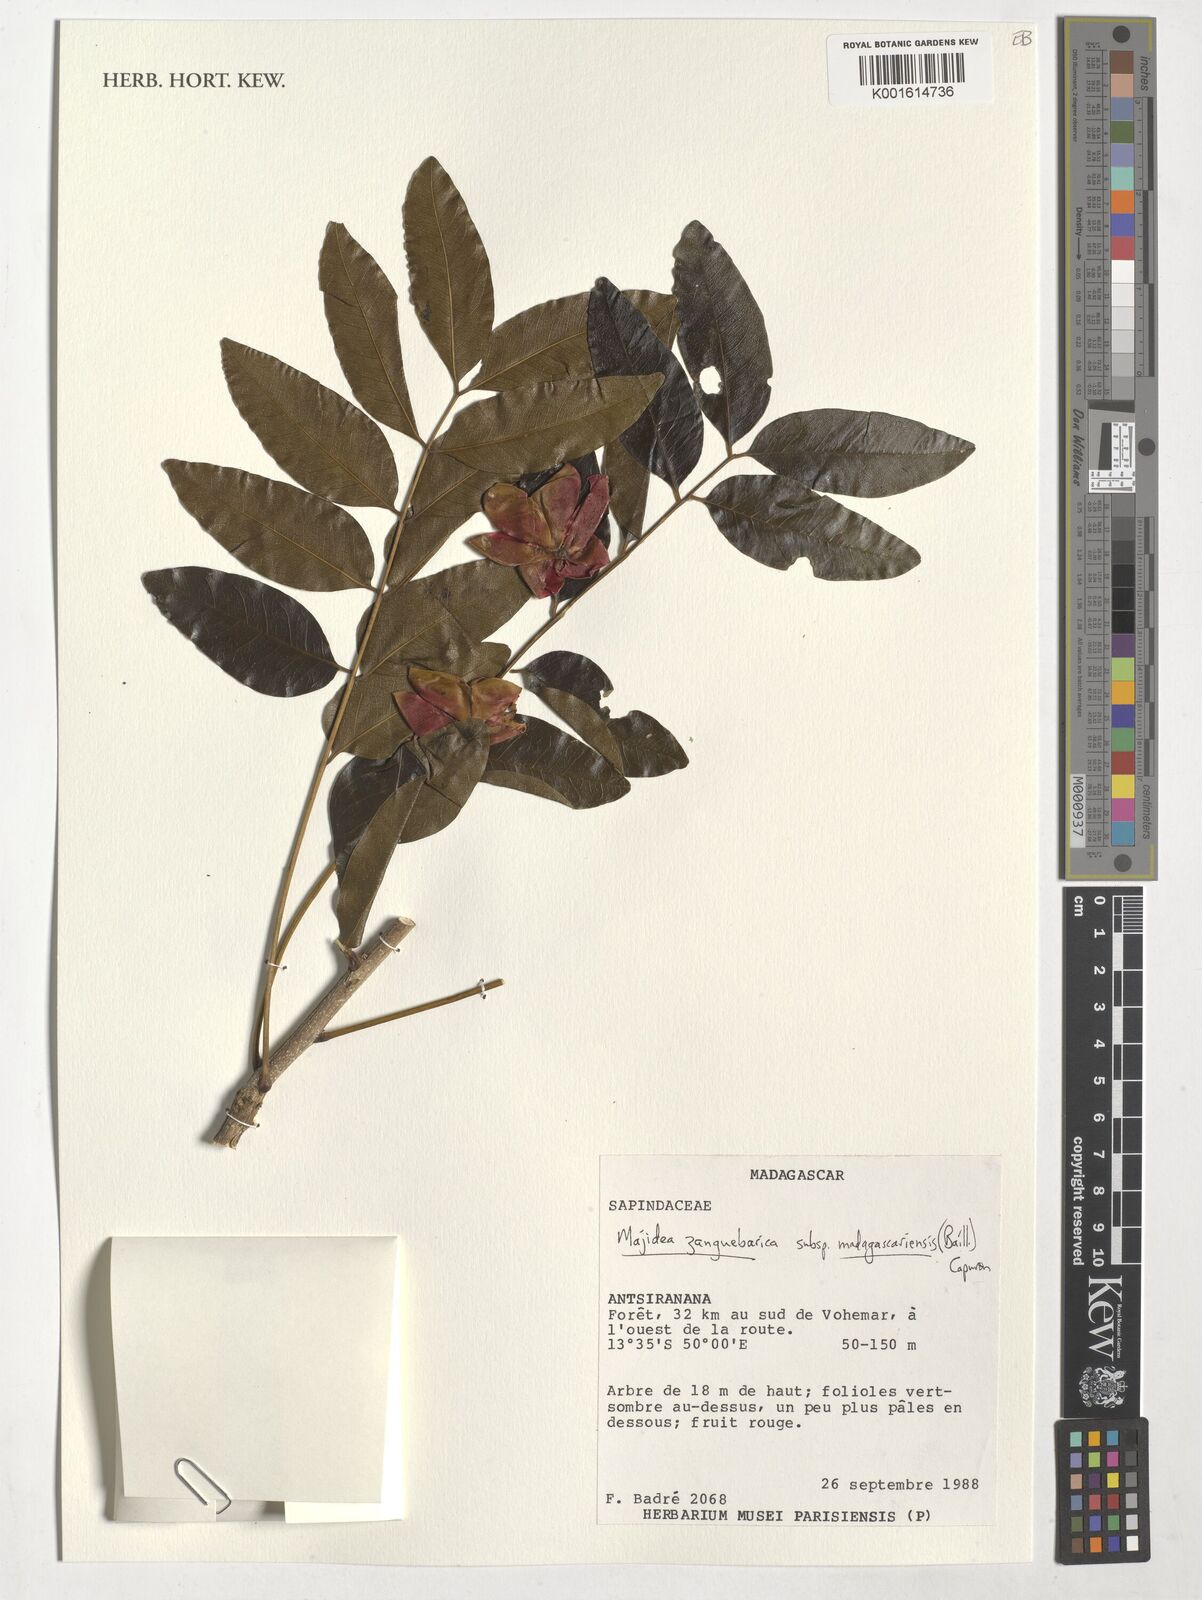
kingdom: Plantae
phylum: Tracheophyta
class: Magnoliopsida
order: Sapindales
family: Sapindaceae
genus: Majidea
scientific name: Majidea zanguebarica
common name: Velvet-seed
